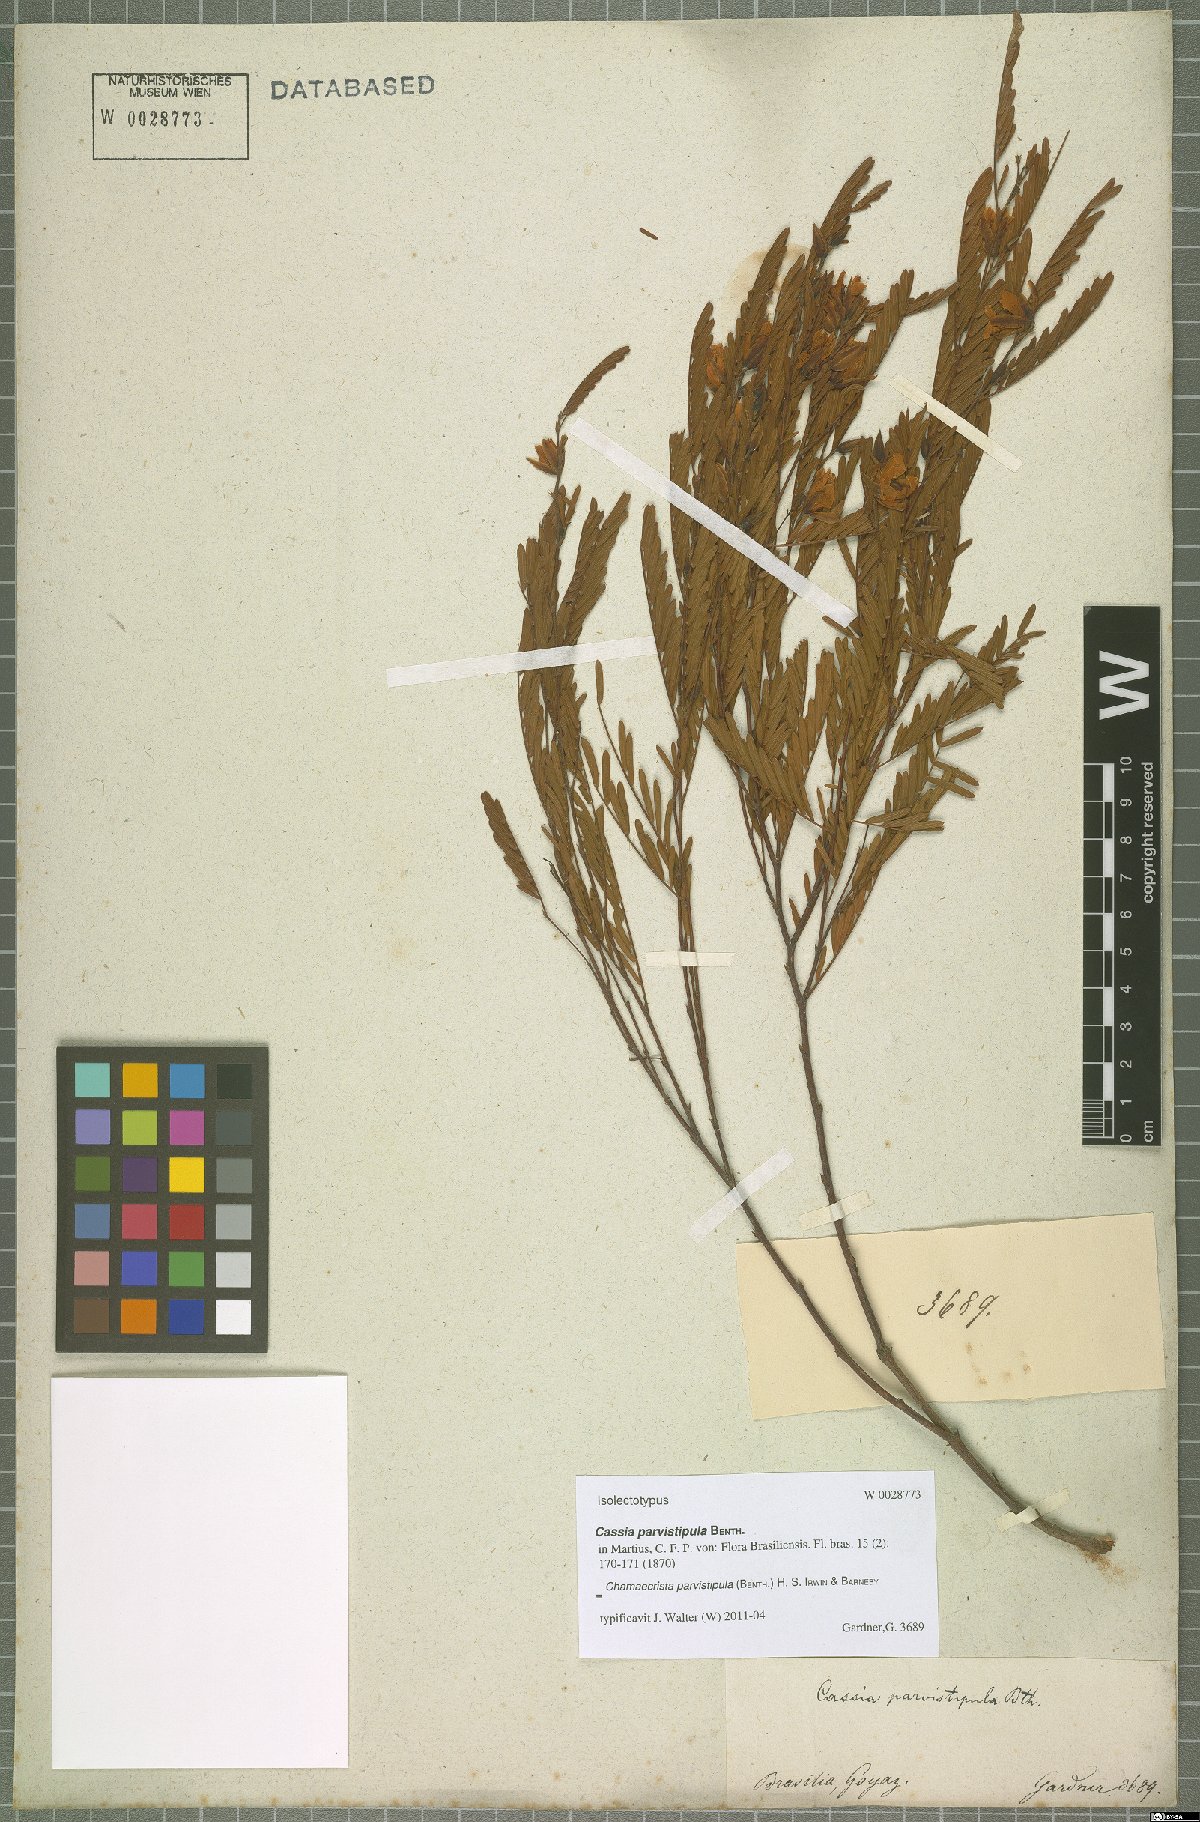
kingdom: Plantae
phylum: Tracheophyta
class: Magnoliopsida
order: Fabales
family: Fabaceae
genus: Chamaecrista
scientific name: Chamaecrista parvistipula
